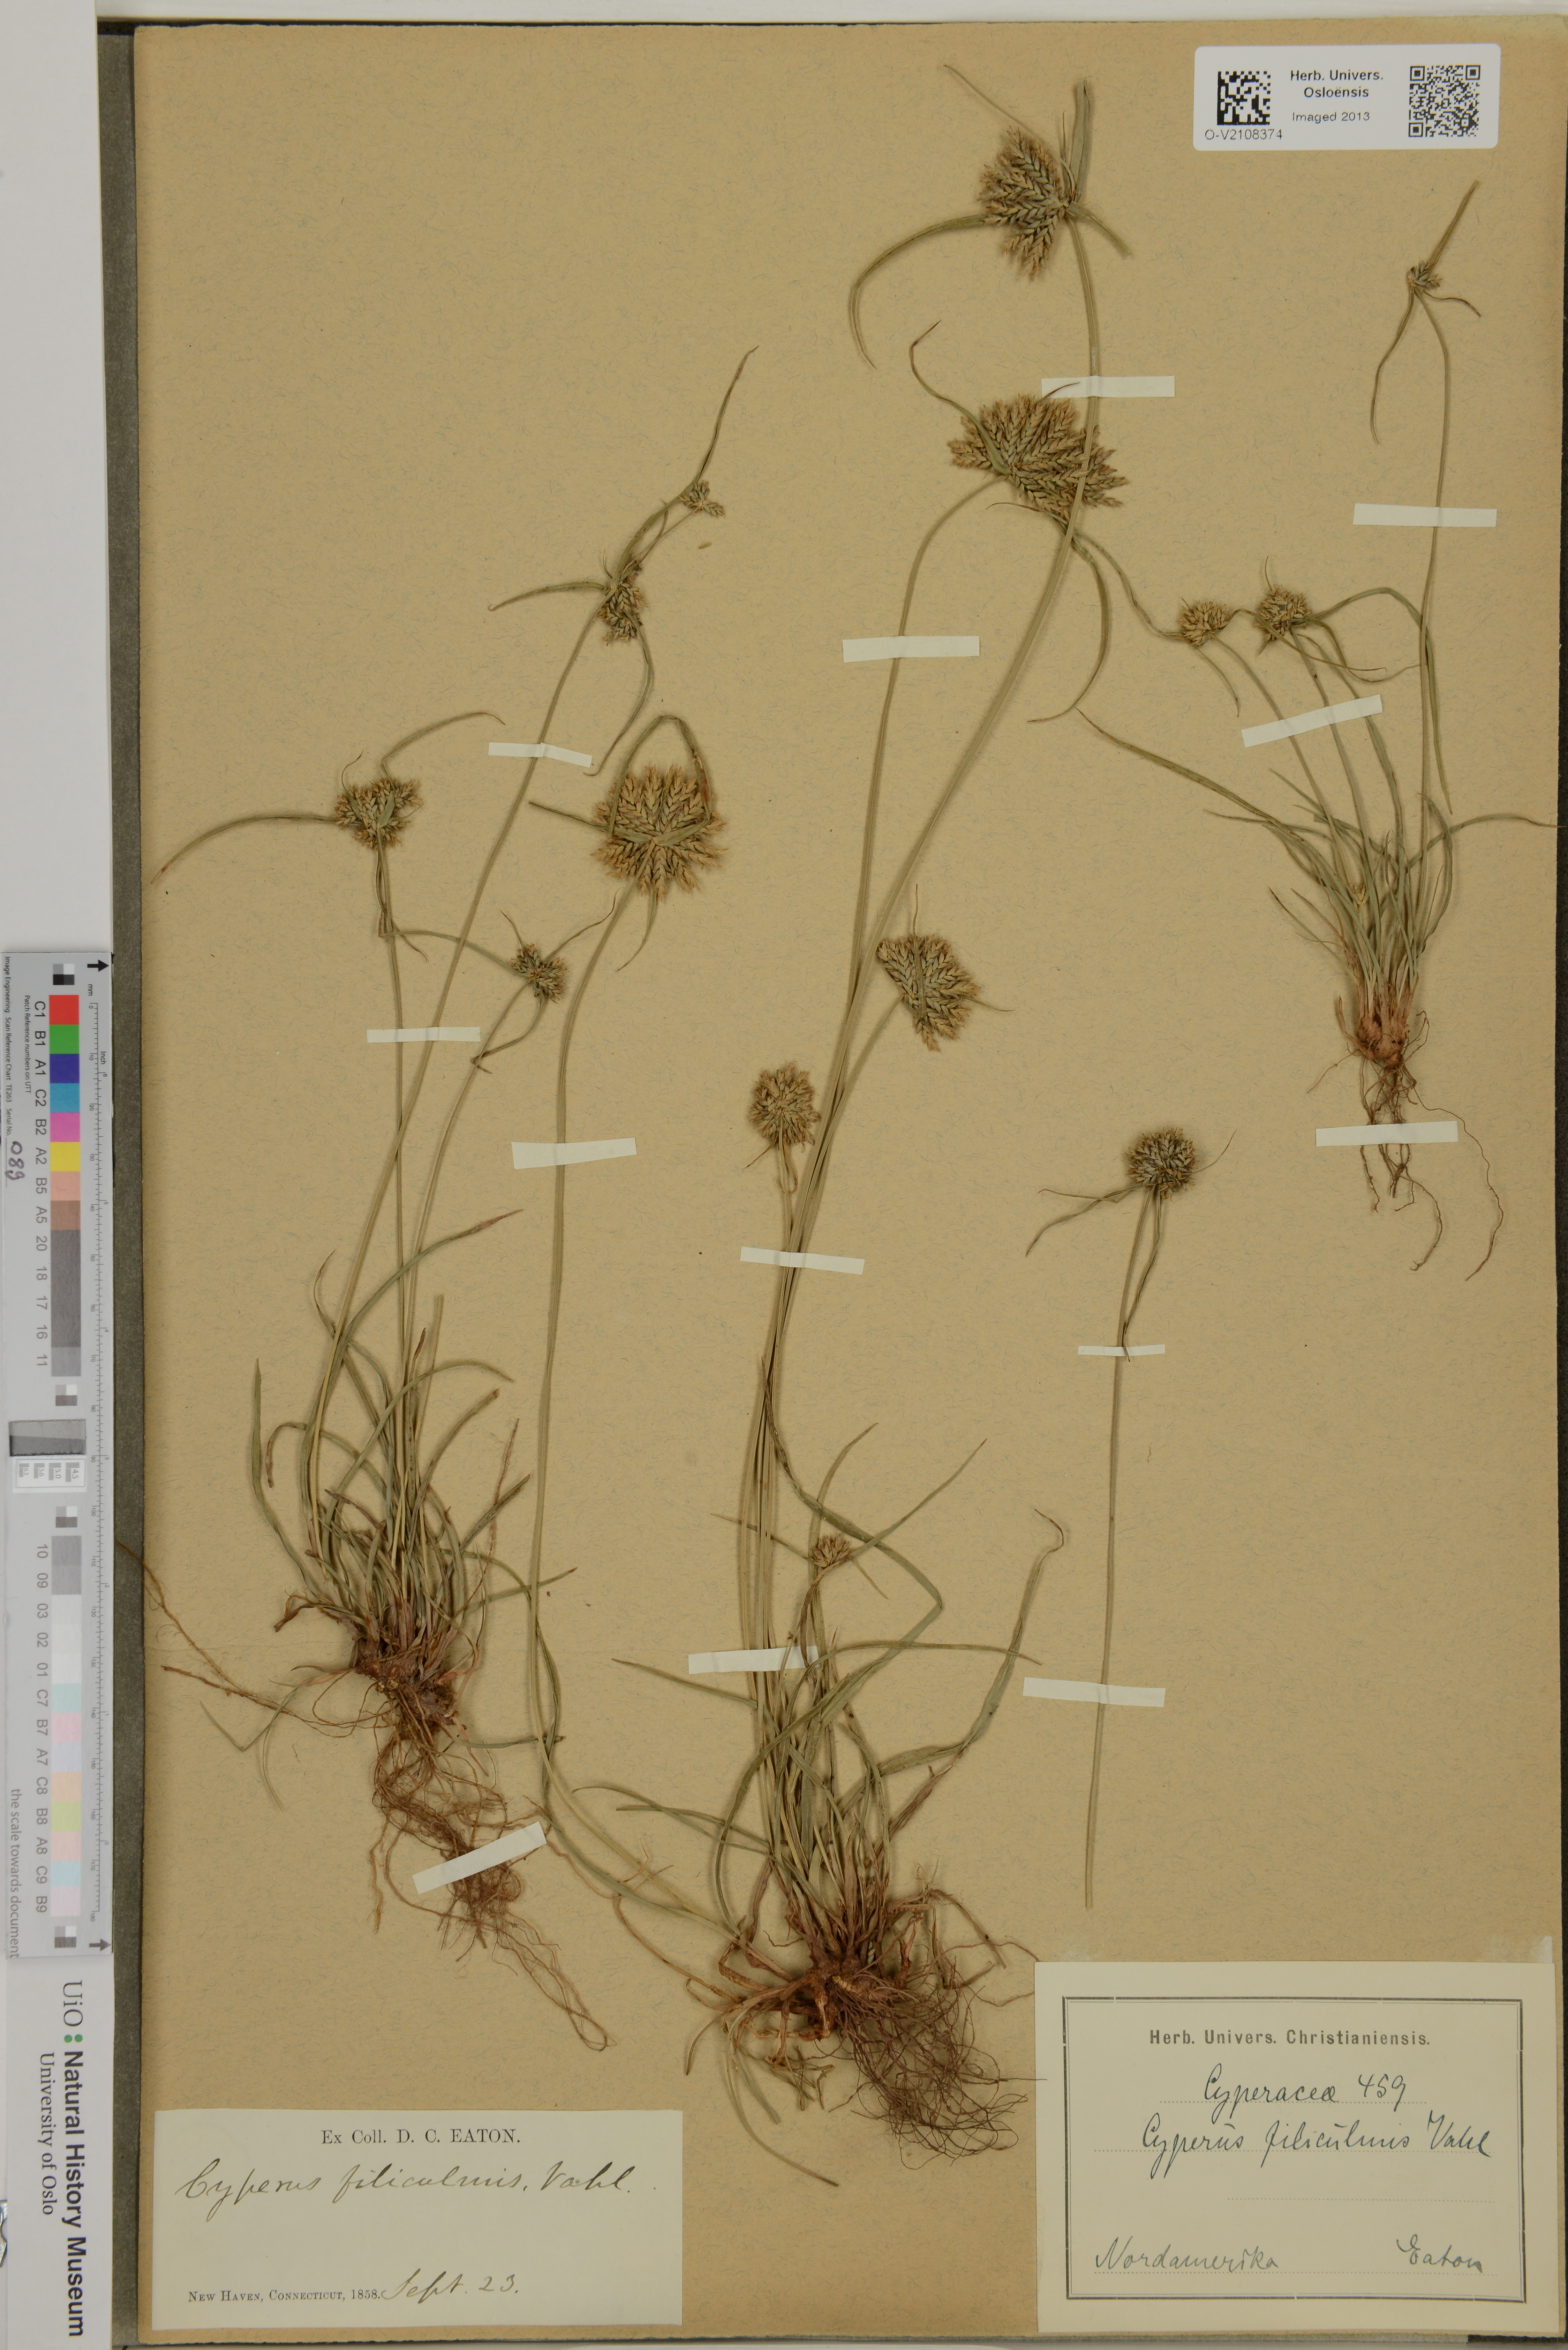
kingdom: Plantae
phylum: Tracheophyta
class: Liliopsida
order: Poales
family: Cyperaceae
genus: Cyperus
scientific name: Cyperus filiculmis
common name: Slender sand sedge
